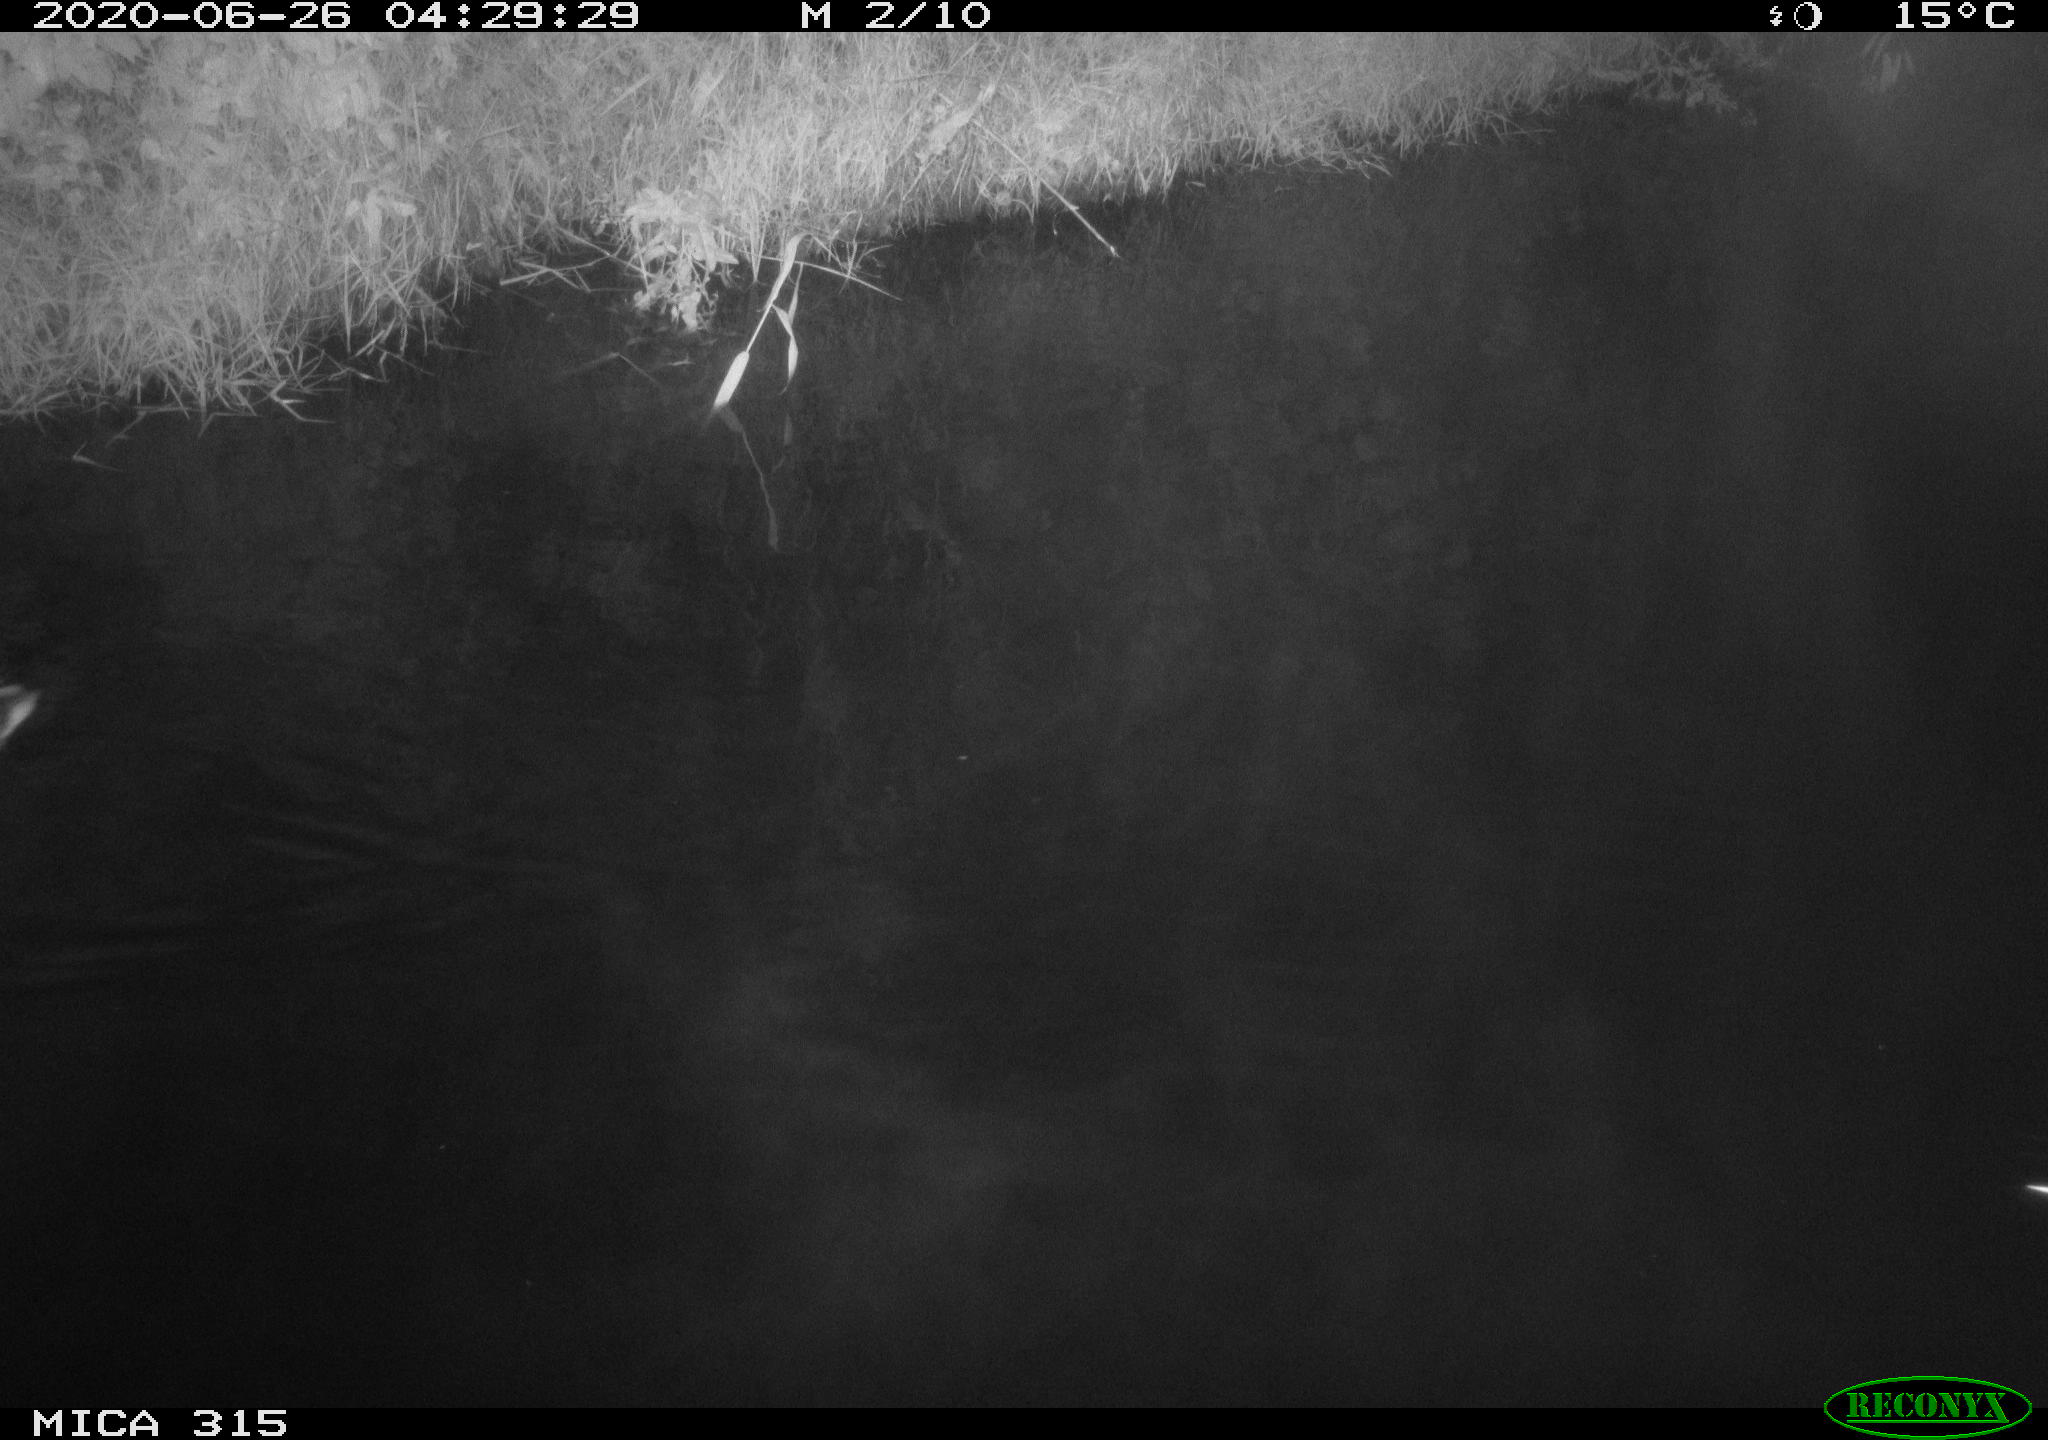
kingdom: Animalia
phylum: Chordata
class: Aves
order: Anseriformes
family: Anatidae
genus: Anas
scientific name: Anas platyrhynchos
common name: Mallard
